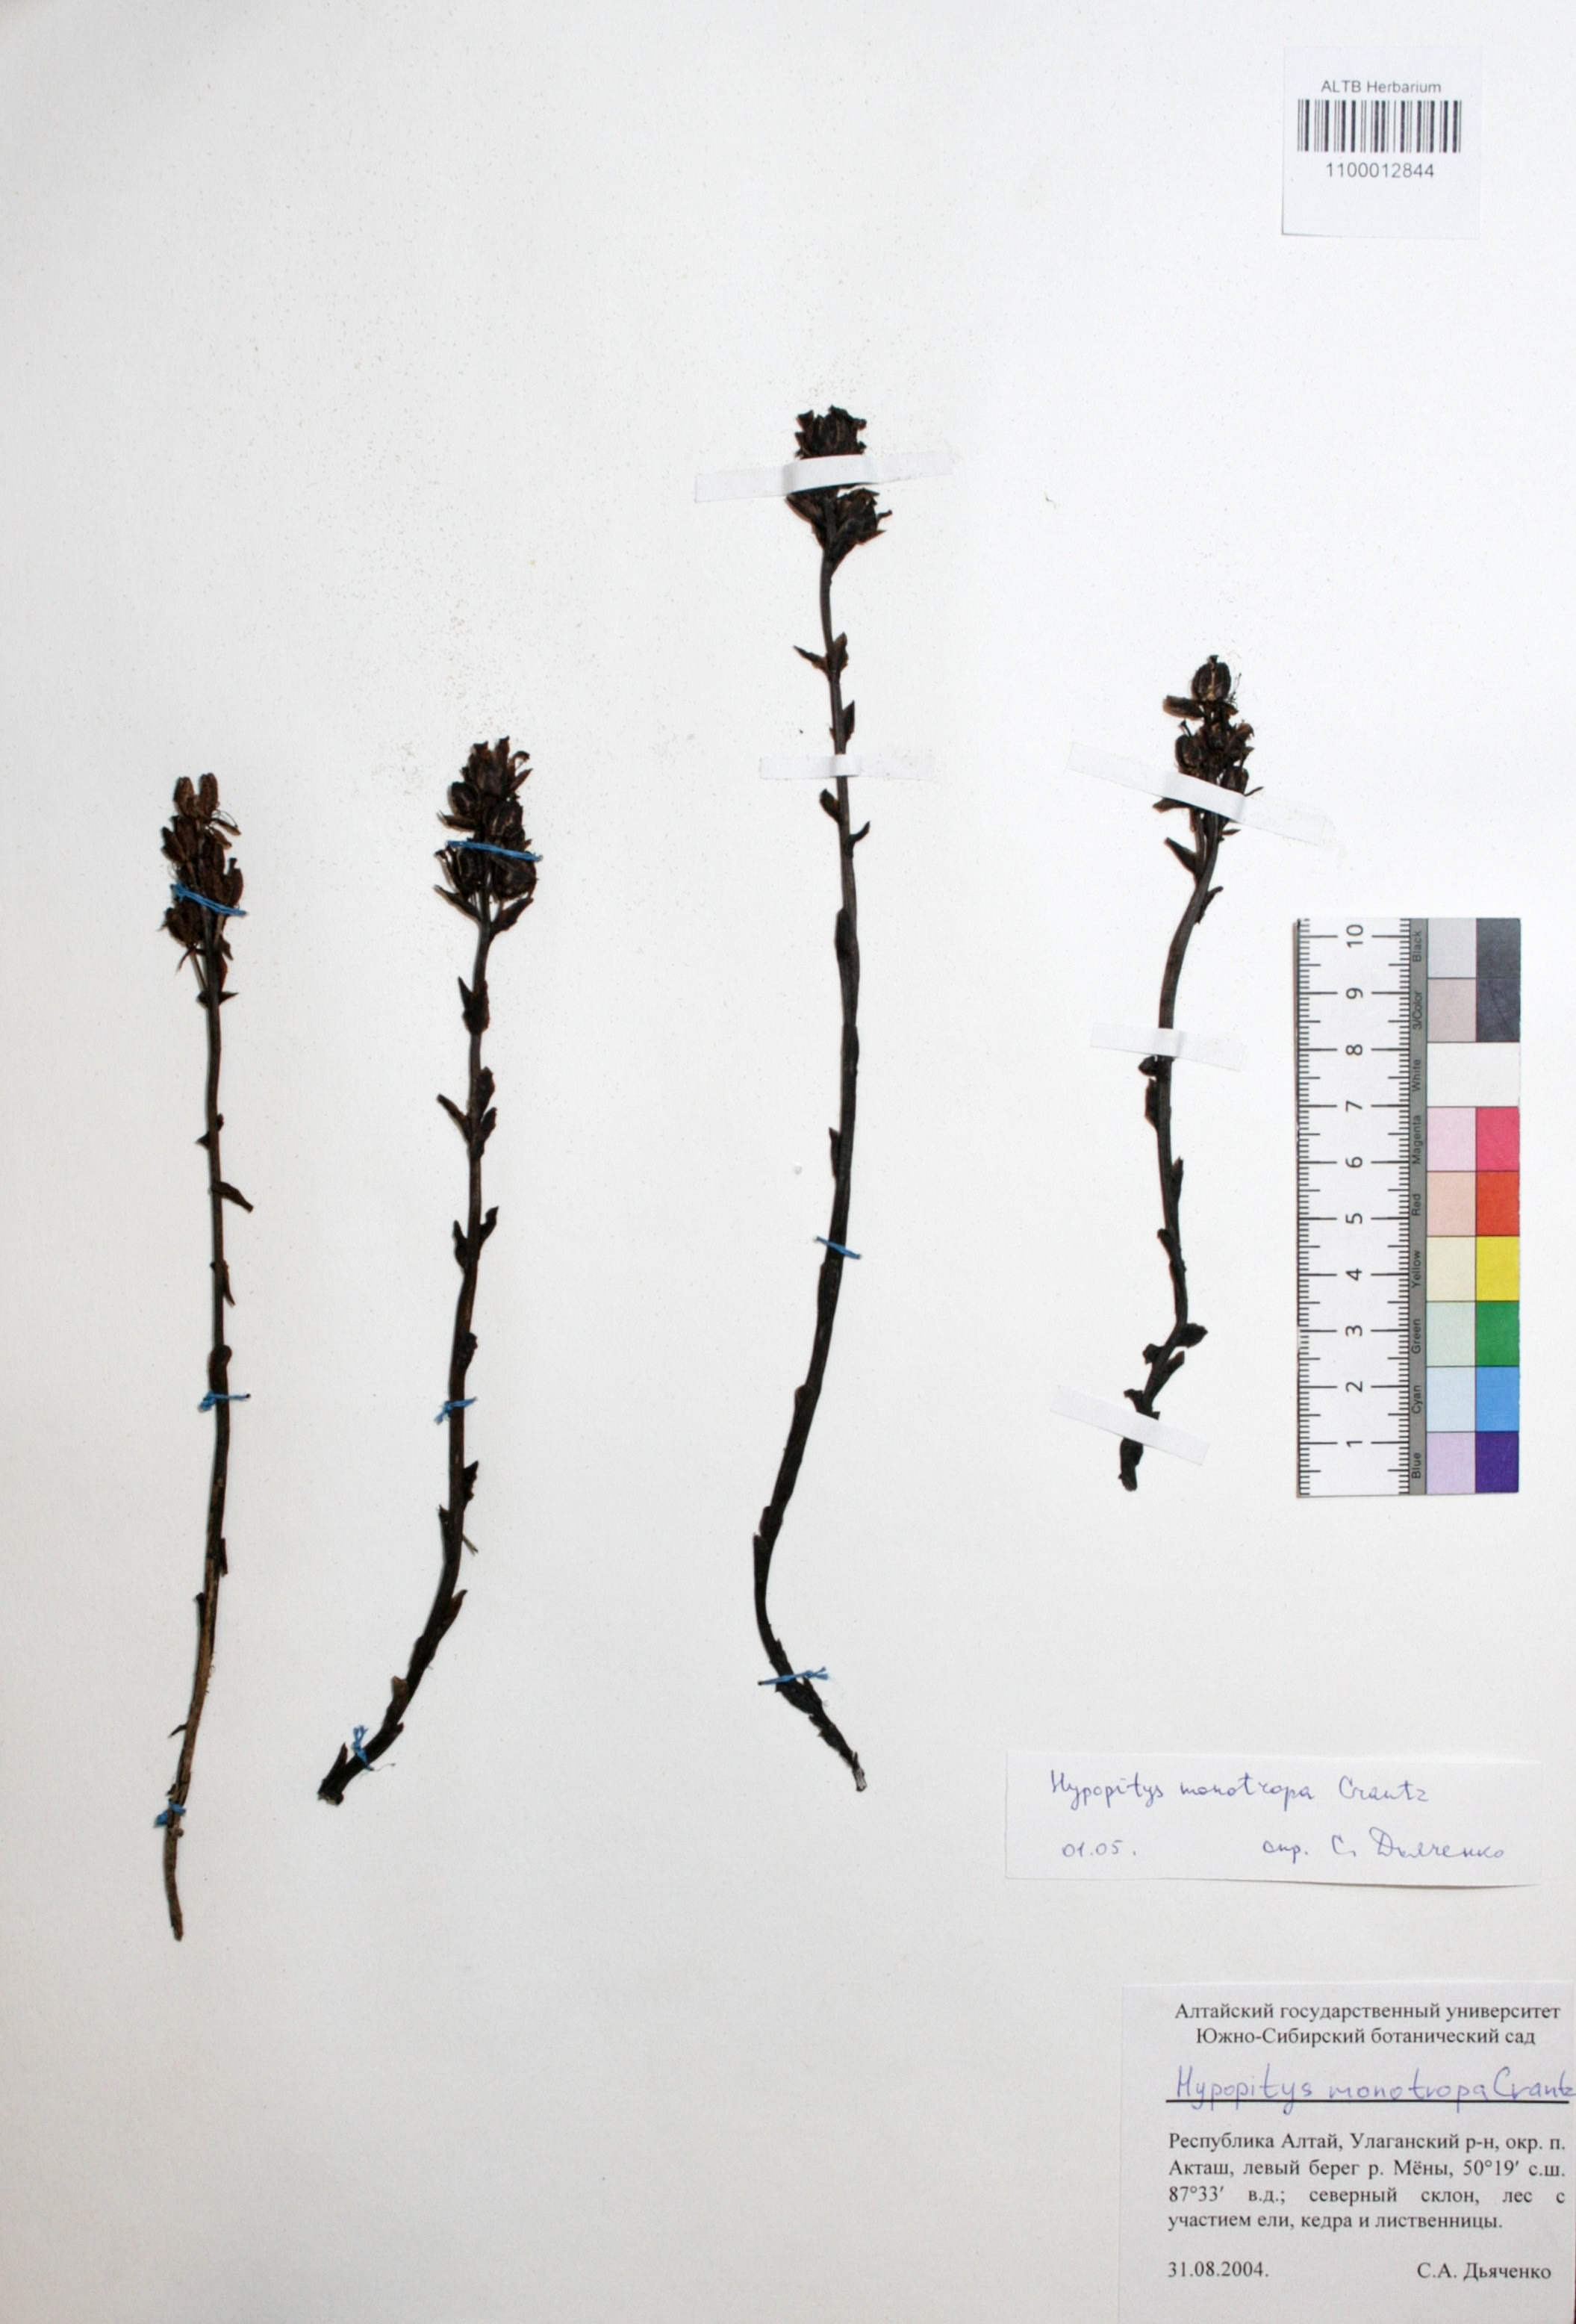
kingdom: Plantae
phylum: Tracheophyta
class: Magnoliopsida
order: Ericales
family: Ericaceae
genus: Hypopitys
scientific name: Hypopitys monotropa
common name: Yellow bird's-nest
